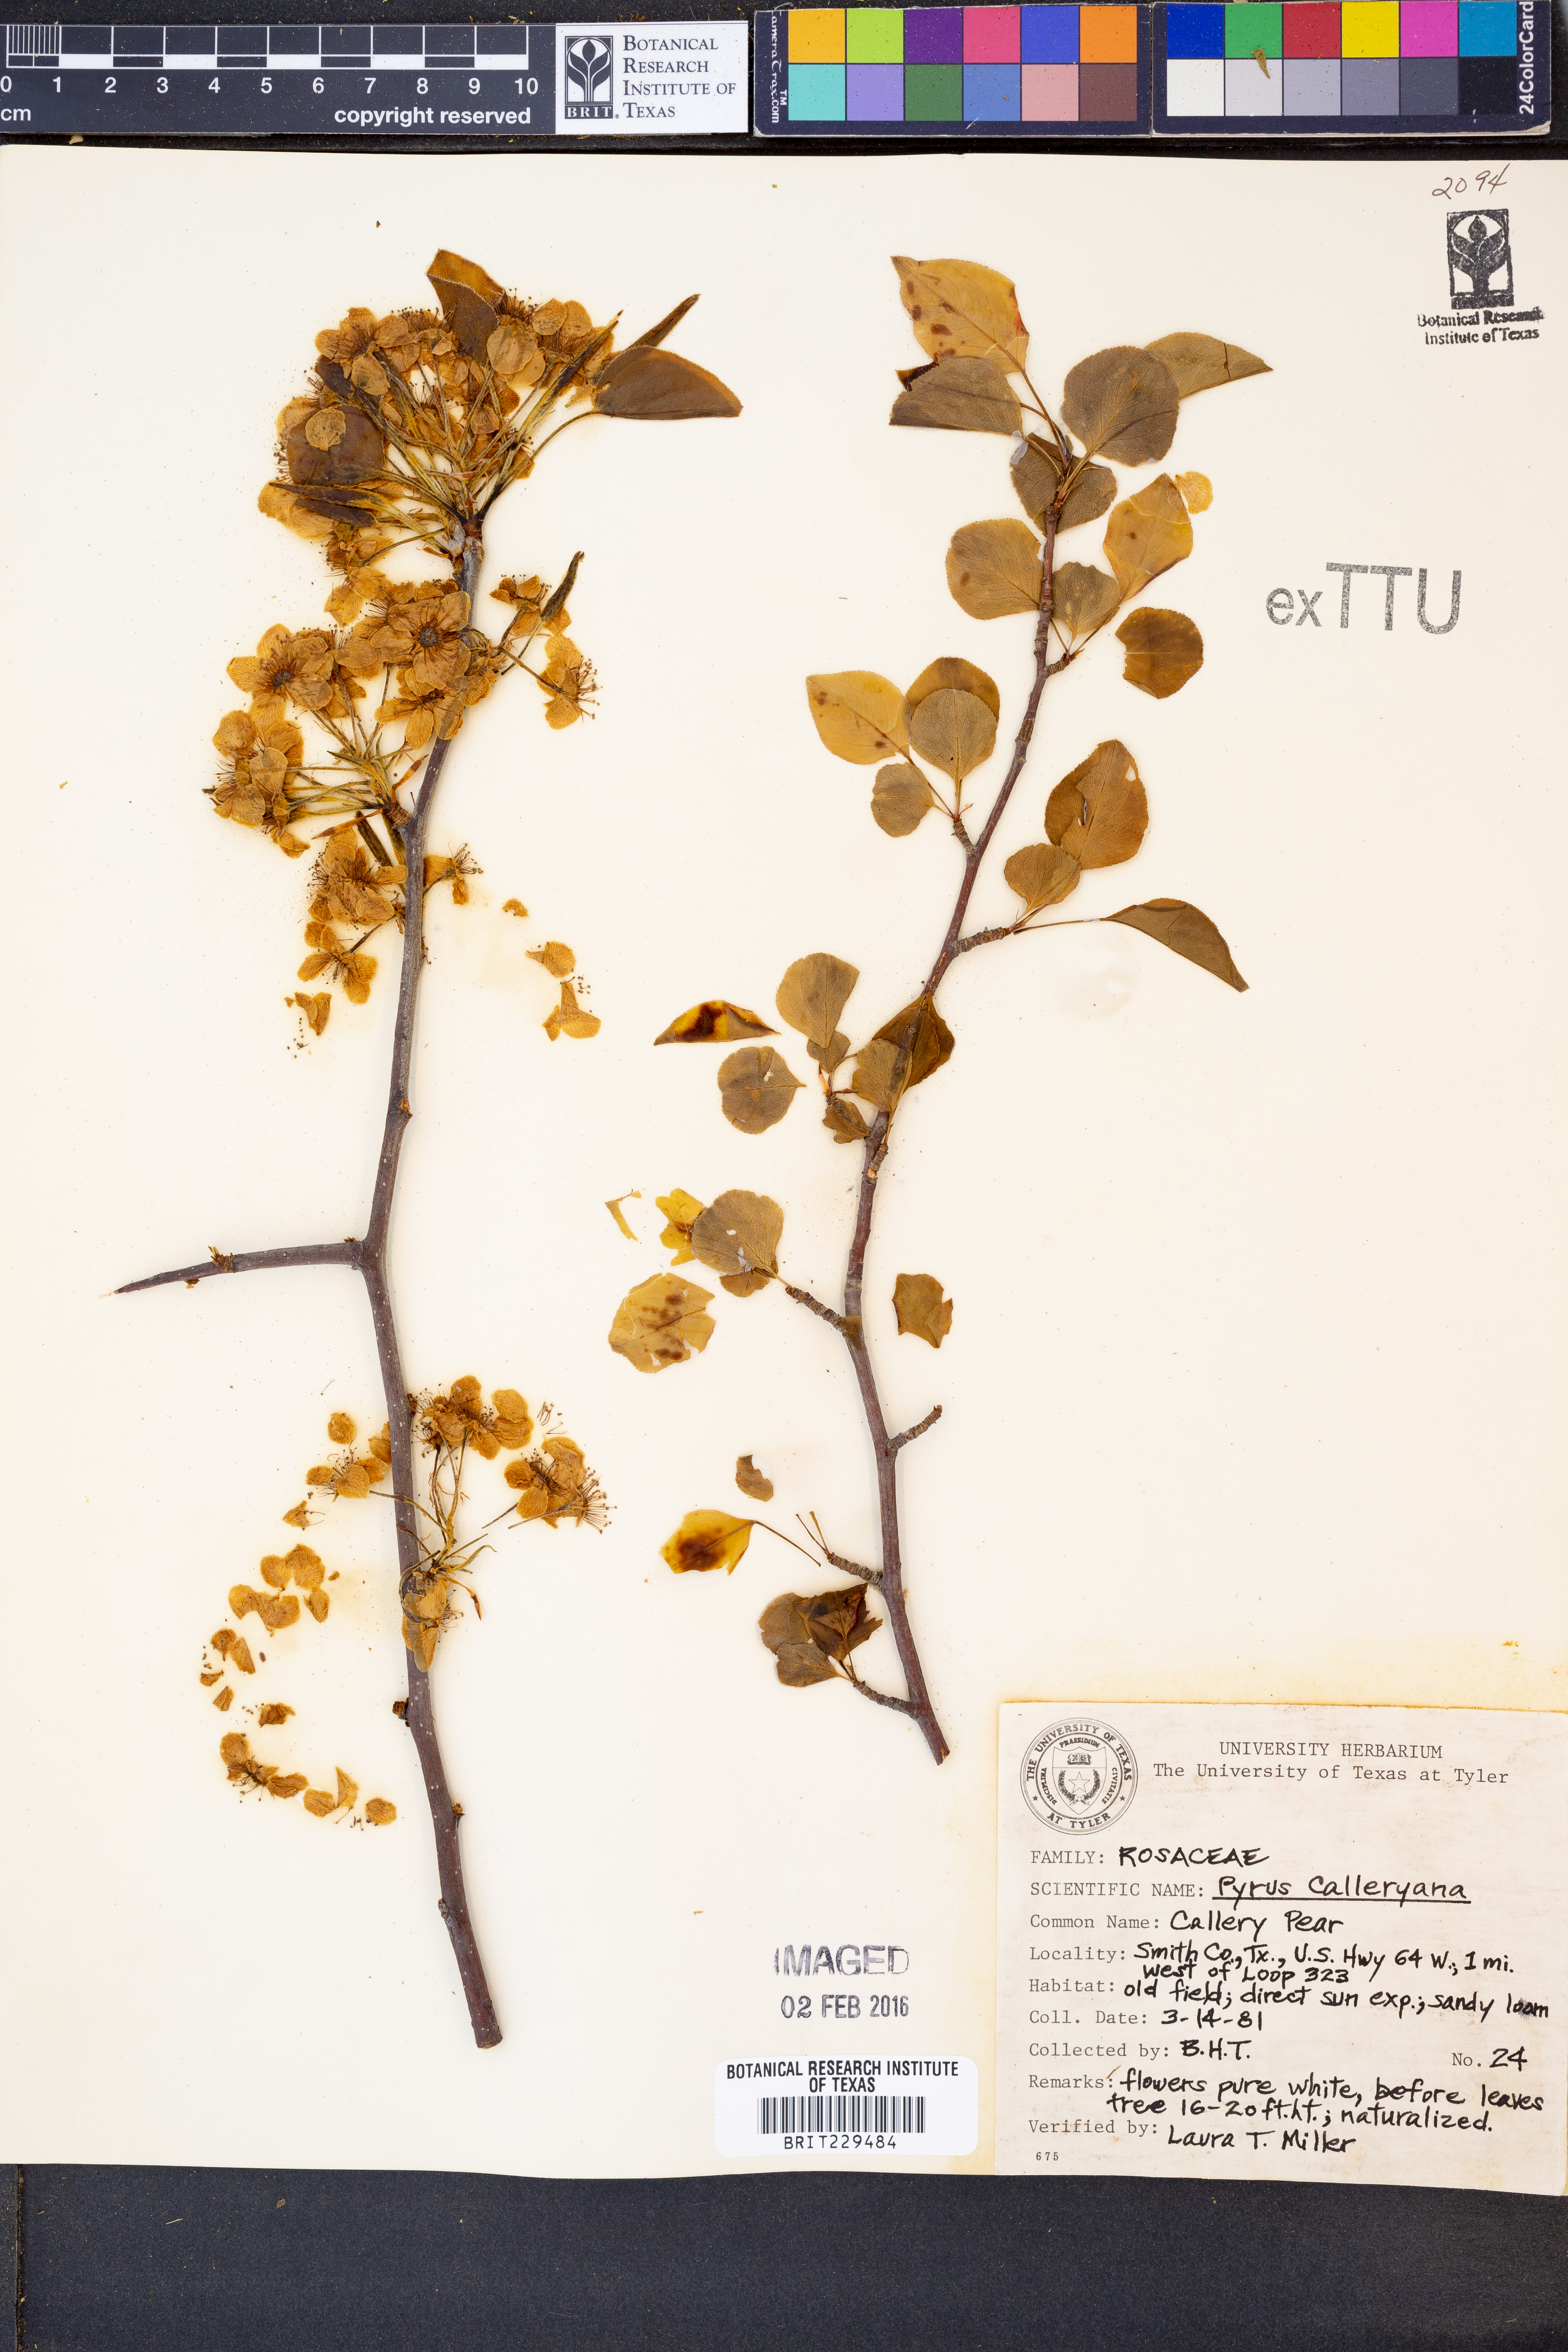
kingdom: Plantae
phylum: Tracheophyta
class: Magnoliopsida
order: Rosales
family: Rosaceae
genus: Pyrus
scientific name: Pyrus calleryana
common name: Callery pear
